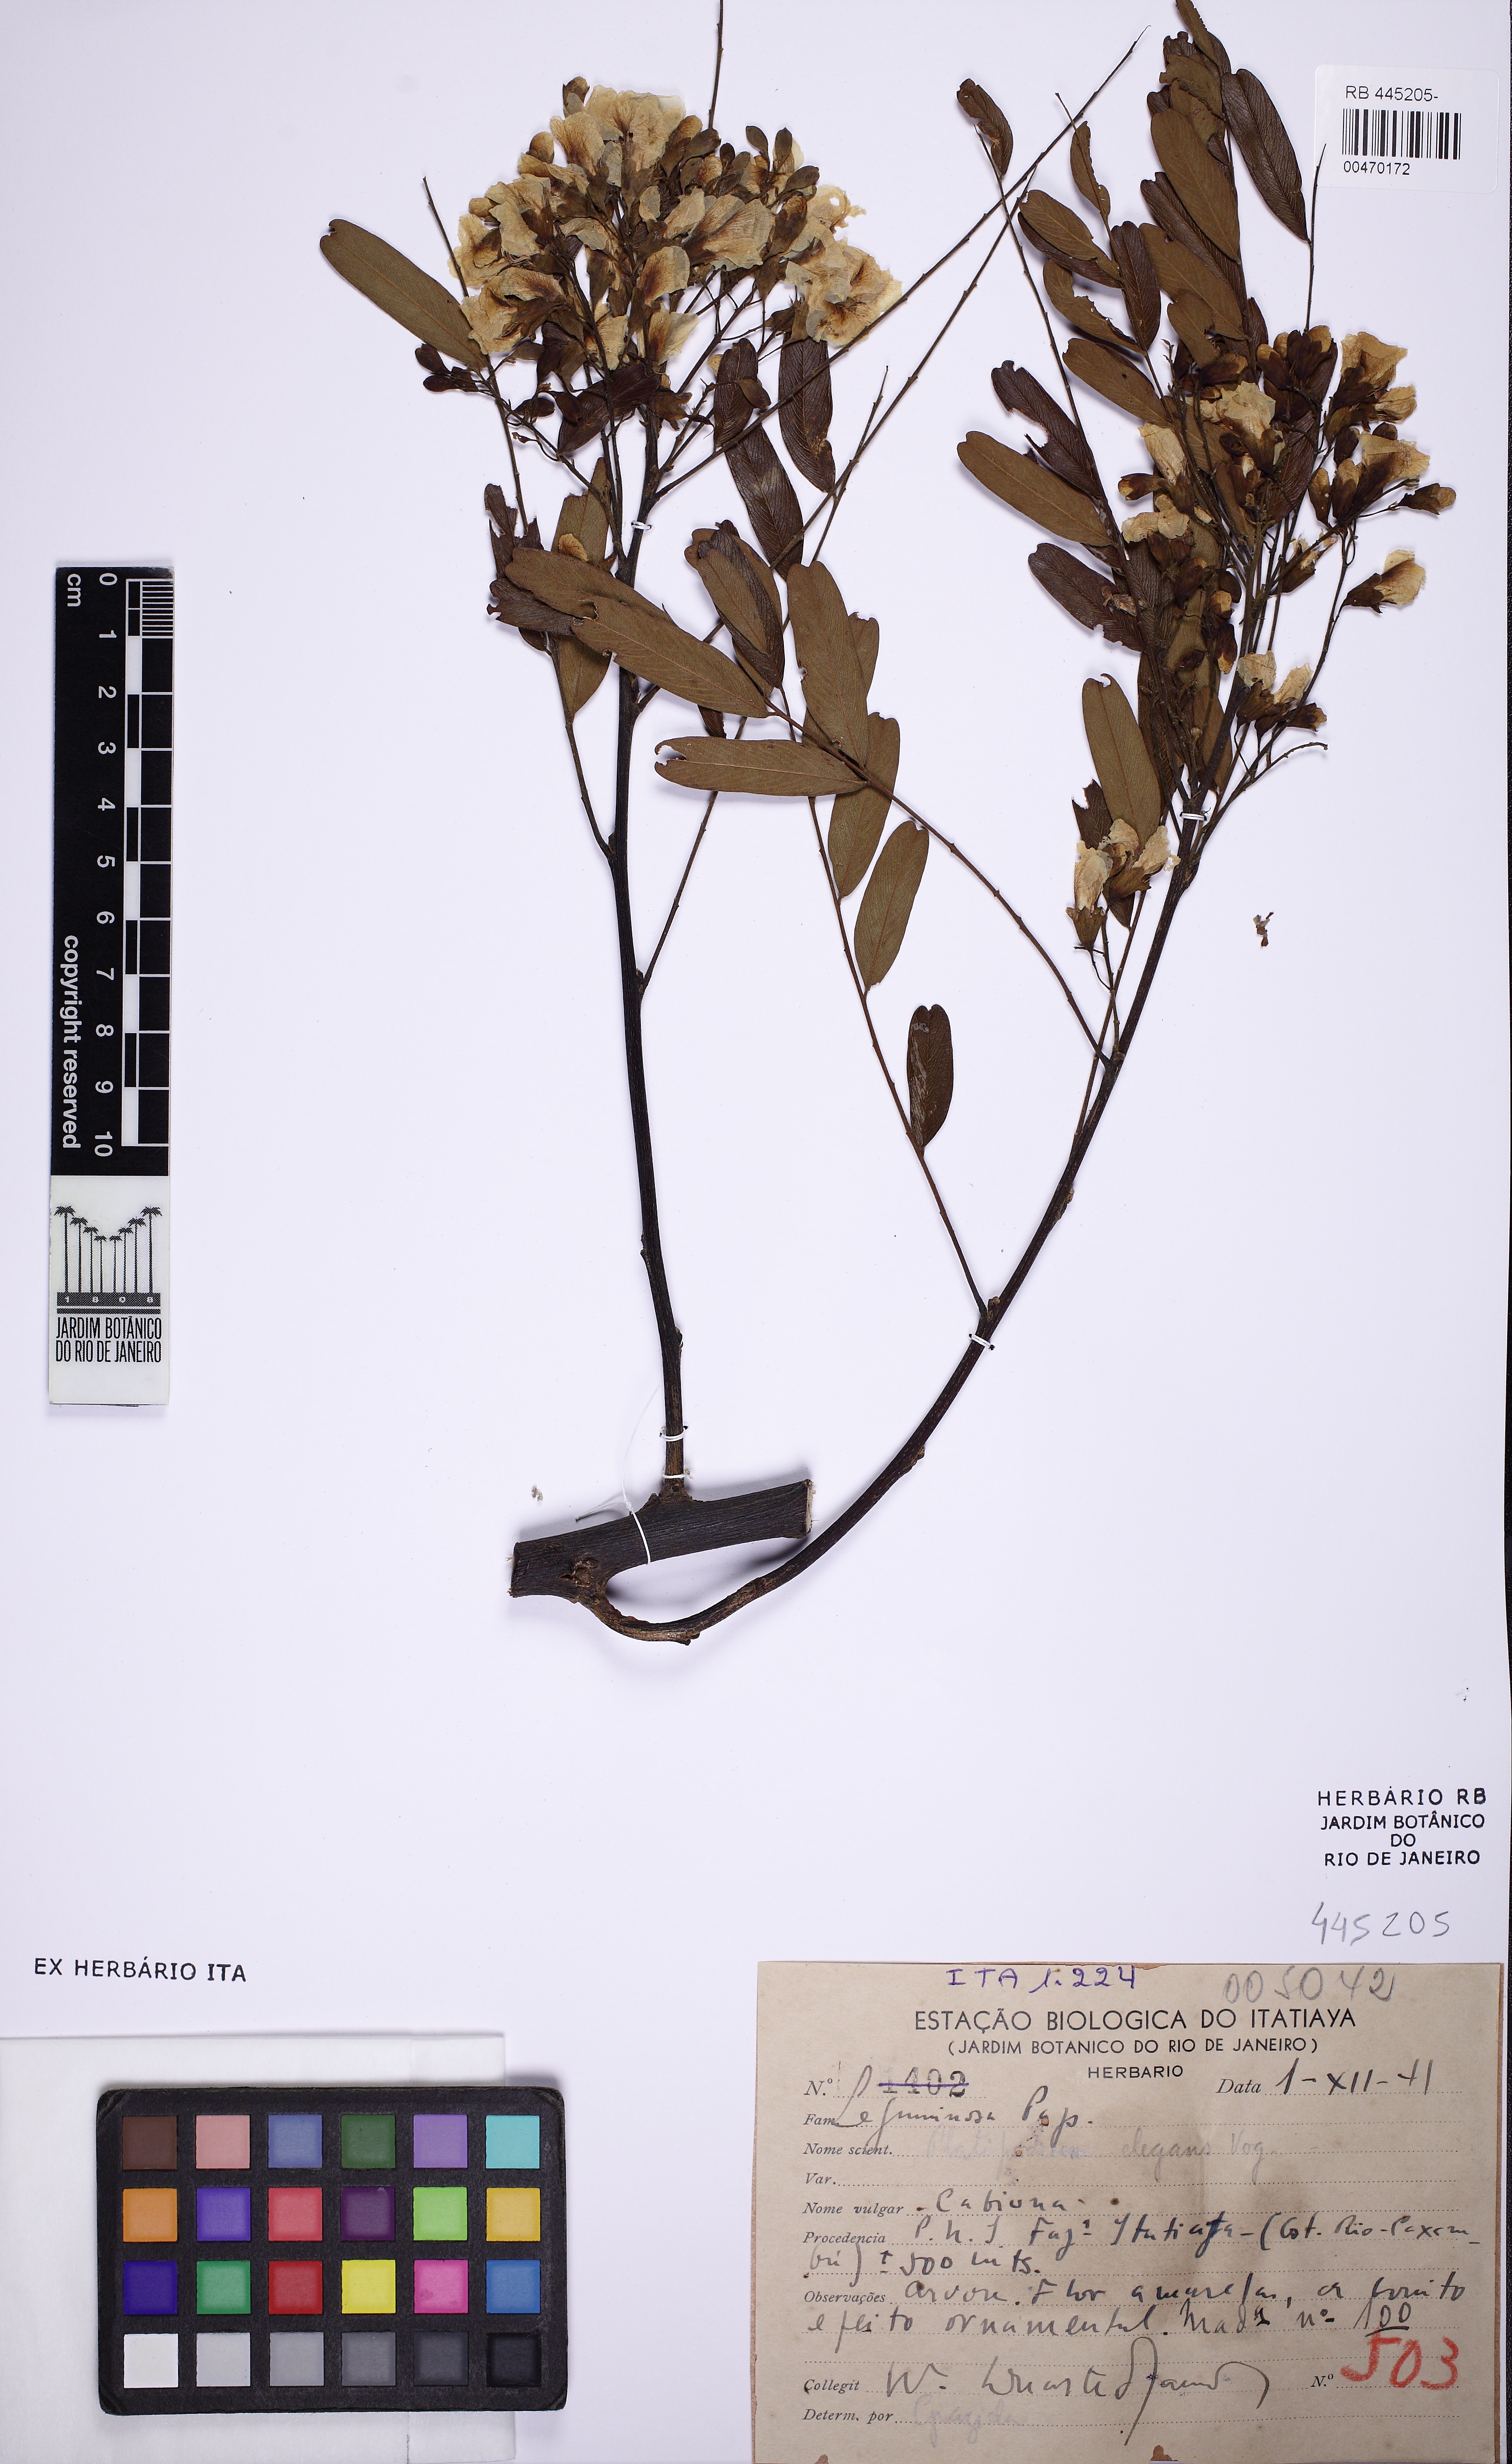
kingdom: Plantae
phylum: Tracheophyta
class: Magnoliopsida
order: Fabales
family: Fabaceae
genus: Platypodium
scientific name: Platypodium elegans
